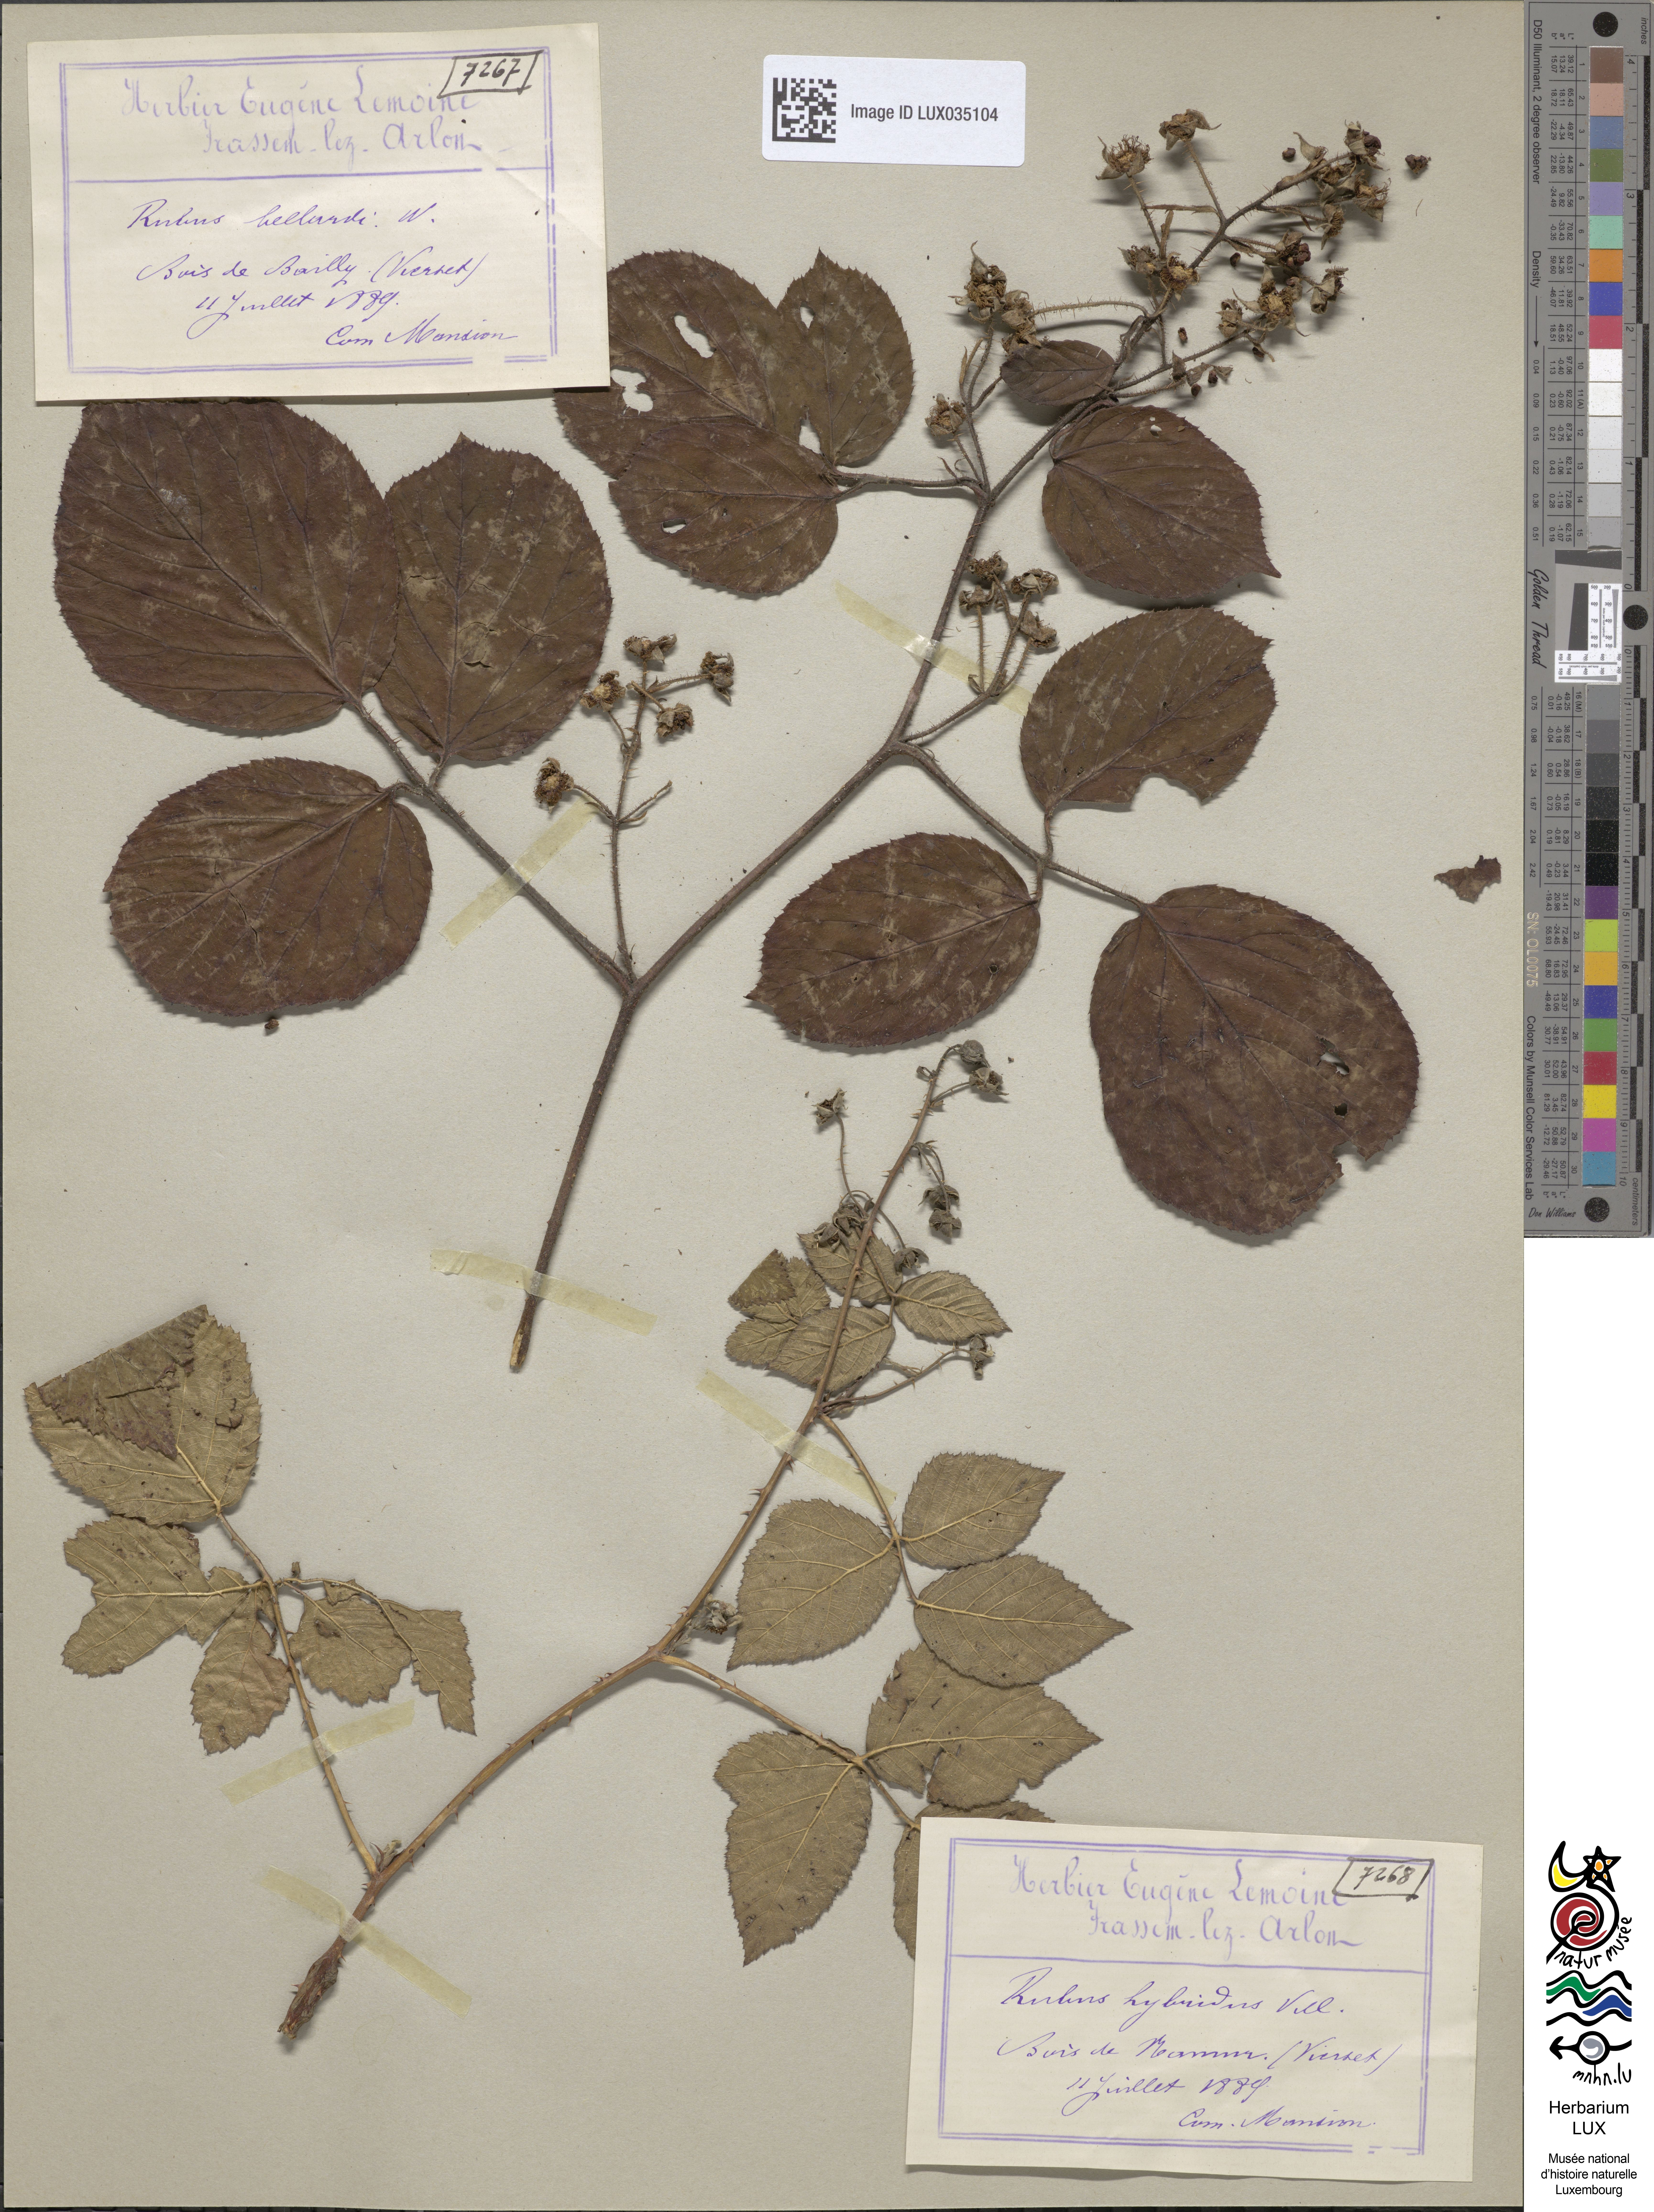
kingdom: Plantae
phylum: Tracheophyta
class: Magnoliopsida
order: Rosales
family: Rosaceae
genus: Rubus
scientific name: Rubus hirtus
